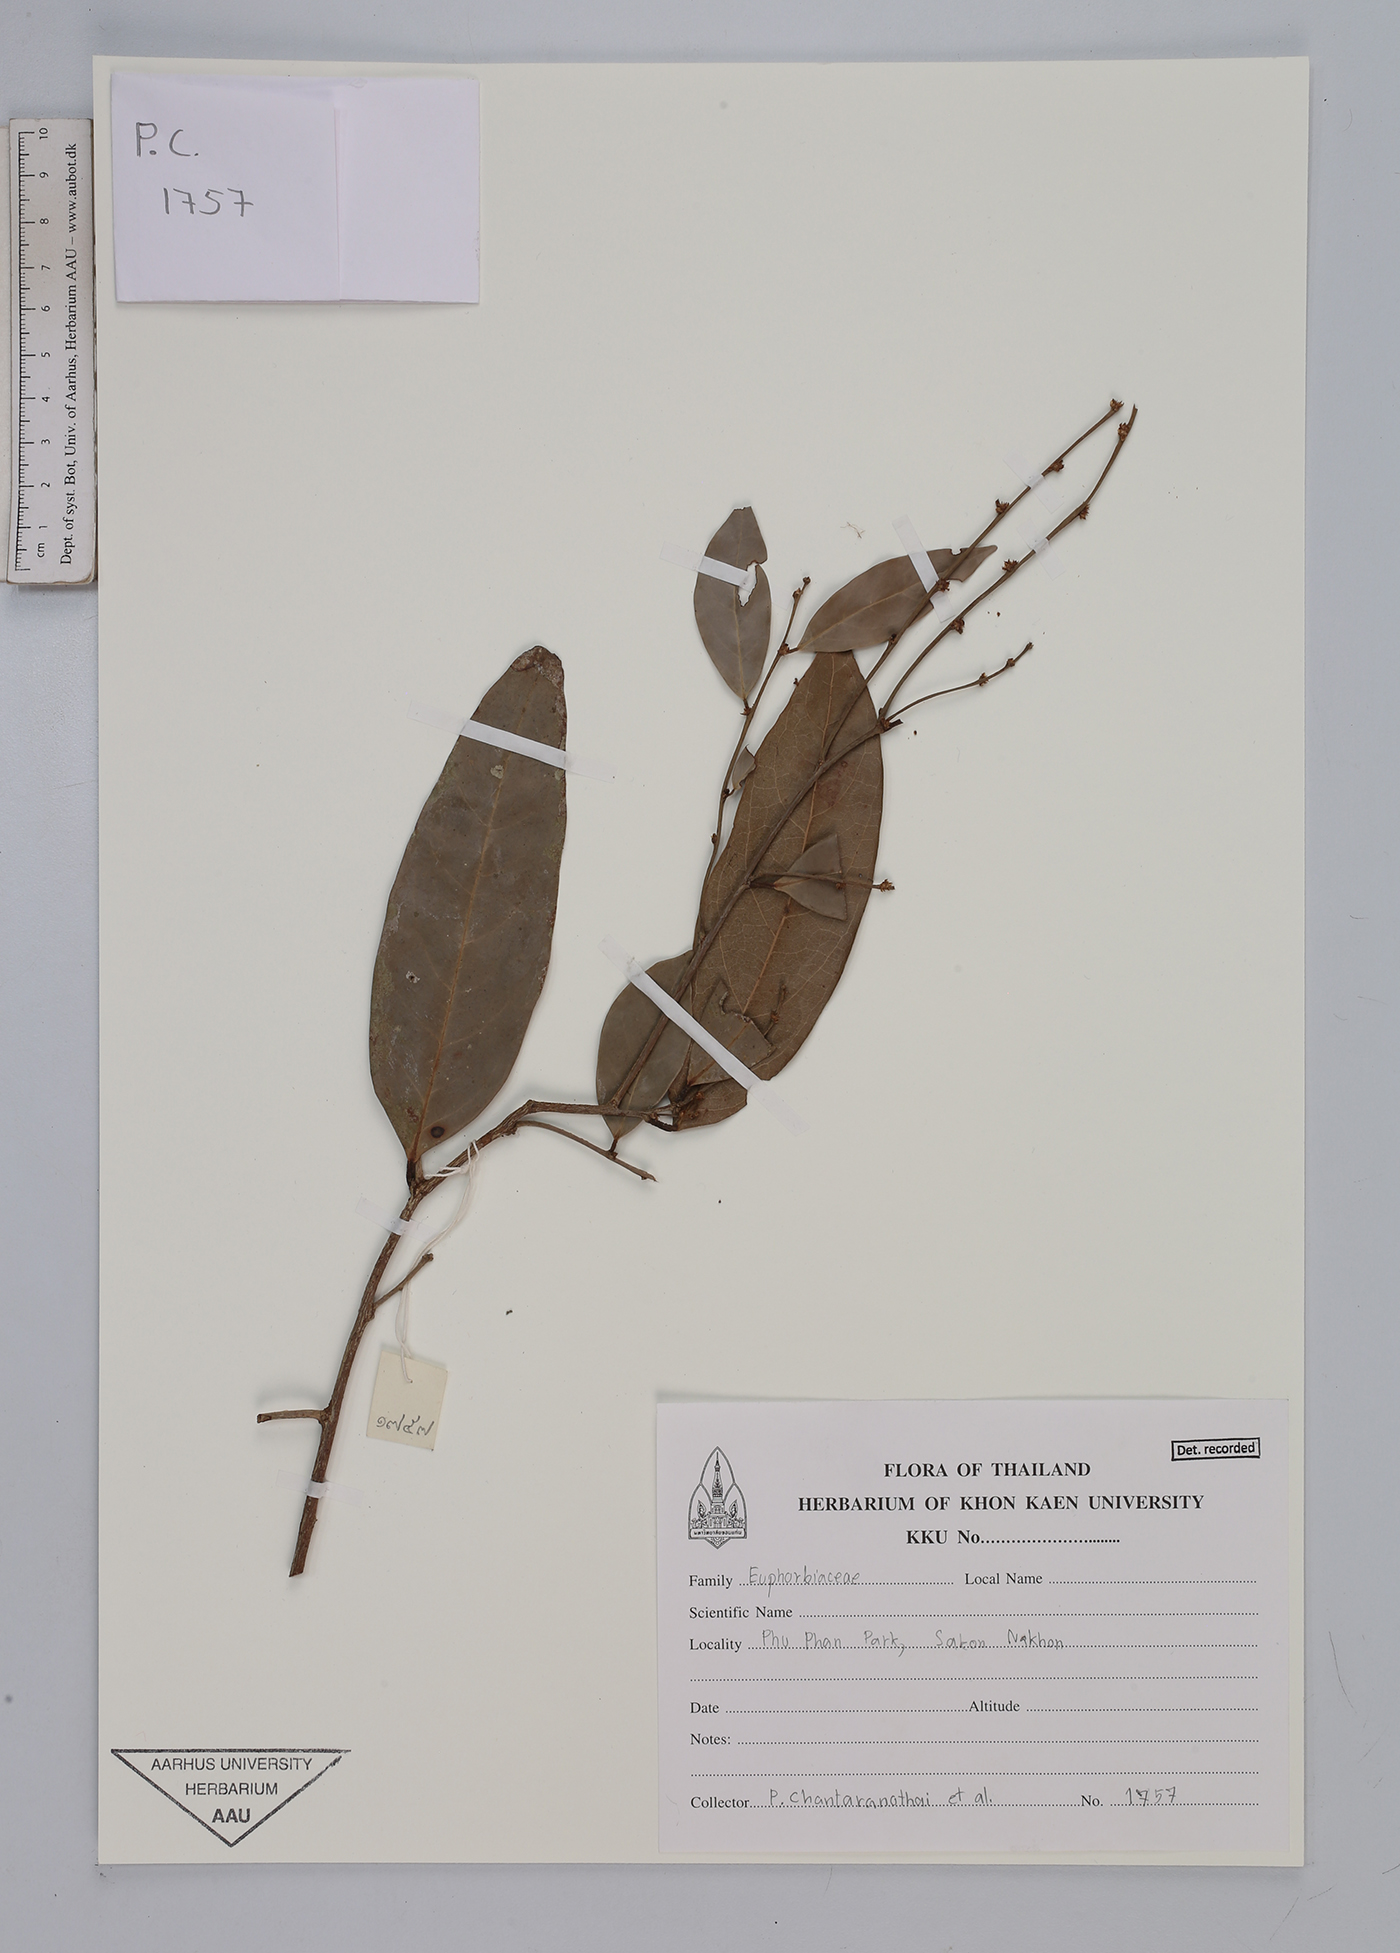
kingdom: Plantae
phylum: Tracheophyta
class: Magnoliopsida
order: Malpighiales
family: Euphorbiaceae
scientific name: Euphorbiaceae
